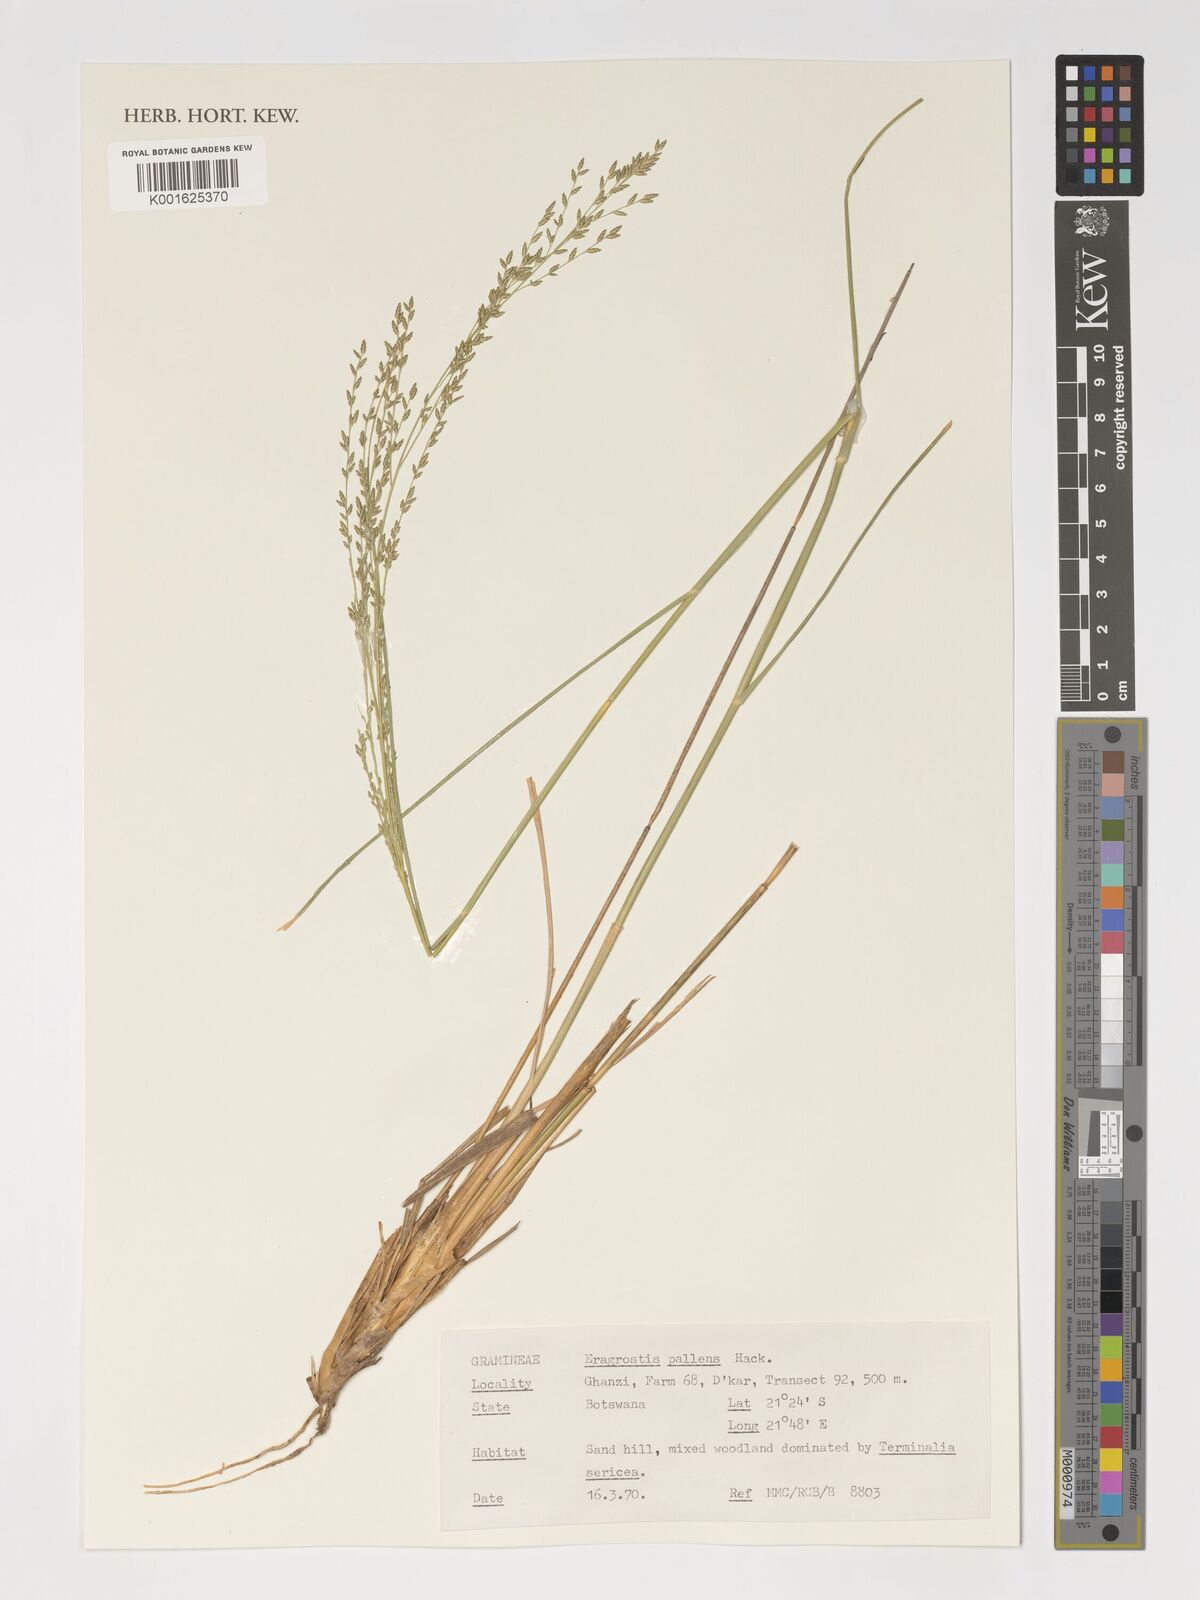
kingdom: Plantae
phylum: Tracheophyta
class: Liliopsida
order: Poales
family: Poaceae
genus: Eragrostis
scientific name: Eragrostis pallens
